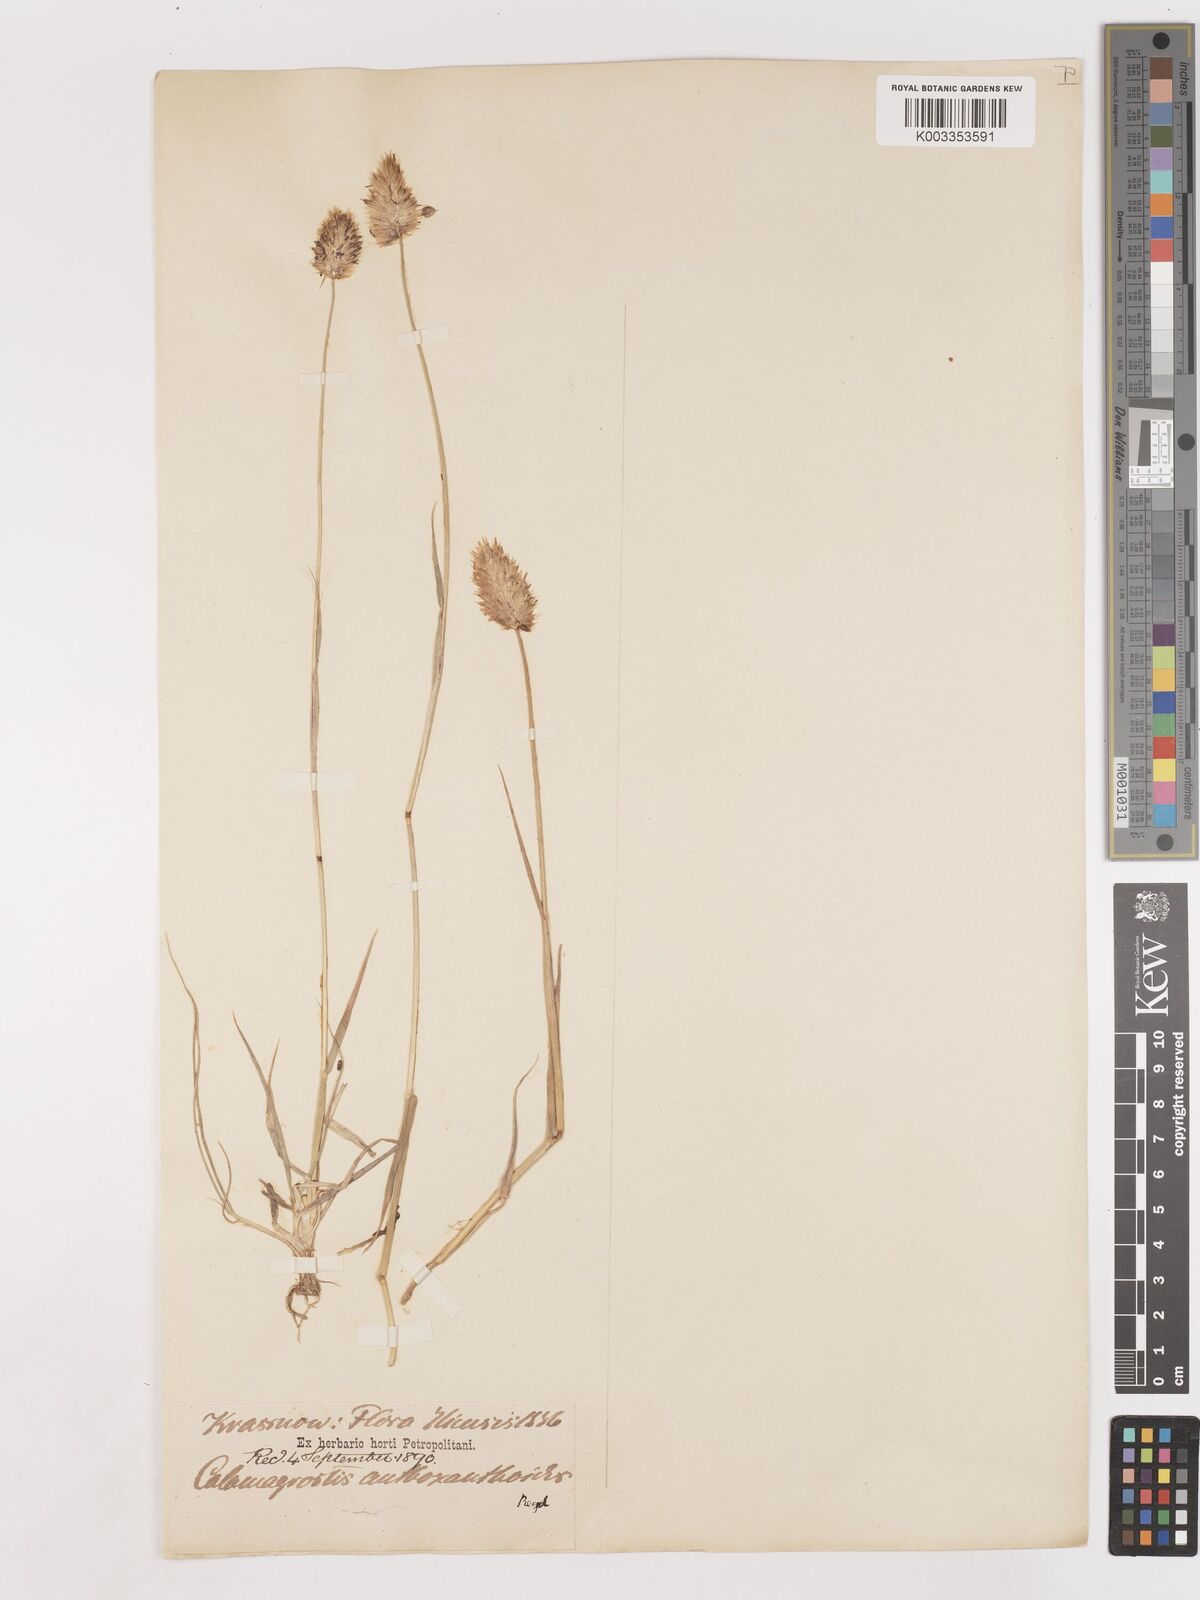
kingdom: Plantae
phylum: Tracheophyta
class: Liliopsida
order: Poales
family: Poaceae
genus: Calamagrostis
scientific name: Calamagrostis anthoxanthoides
